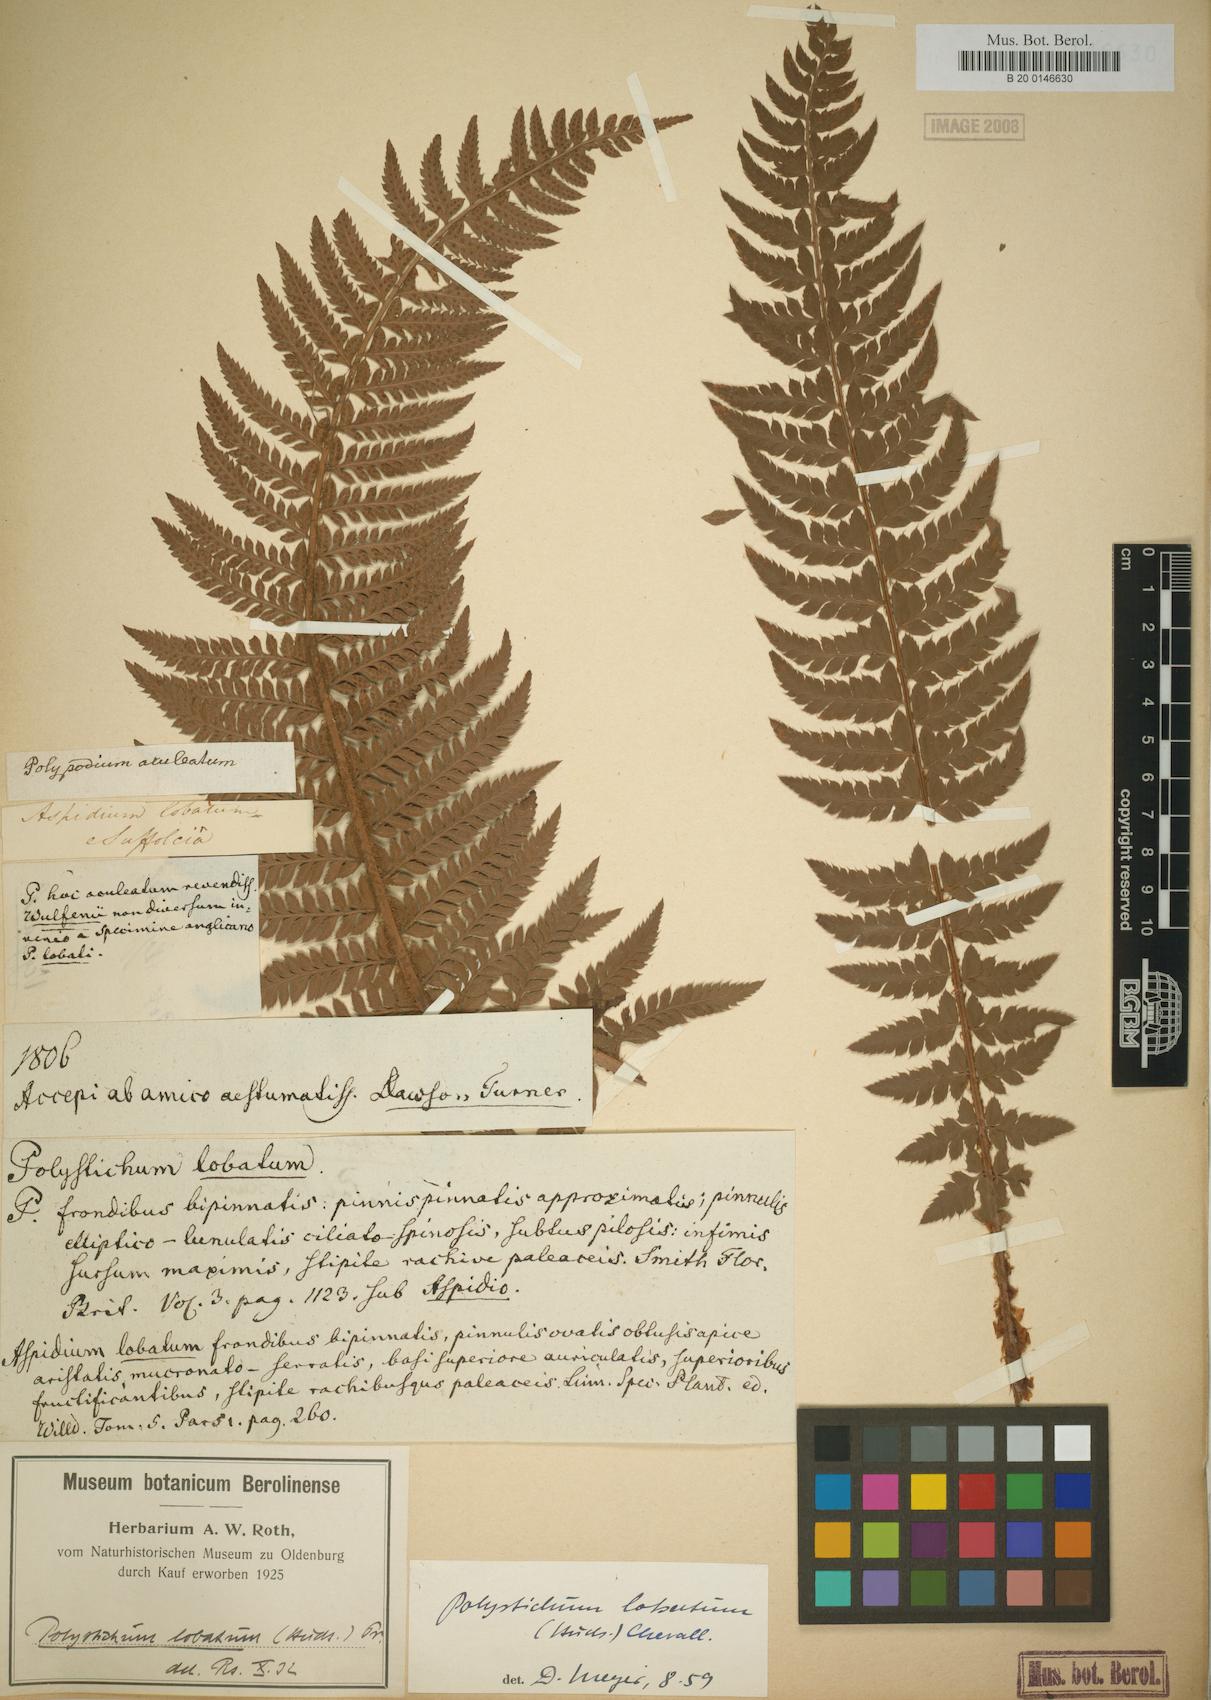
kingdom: Plantae
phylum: Tracheophyta
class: Polypodiopsida
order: Polypodiales
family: Dryopteridaceae
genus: Polystichum
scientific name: Polystichum aculeatum
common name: Hard shield-fern
